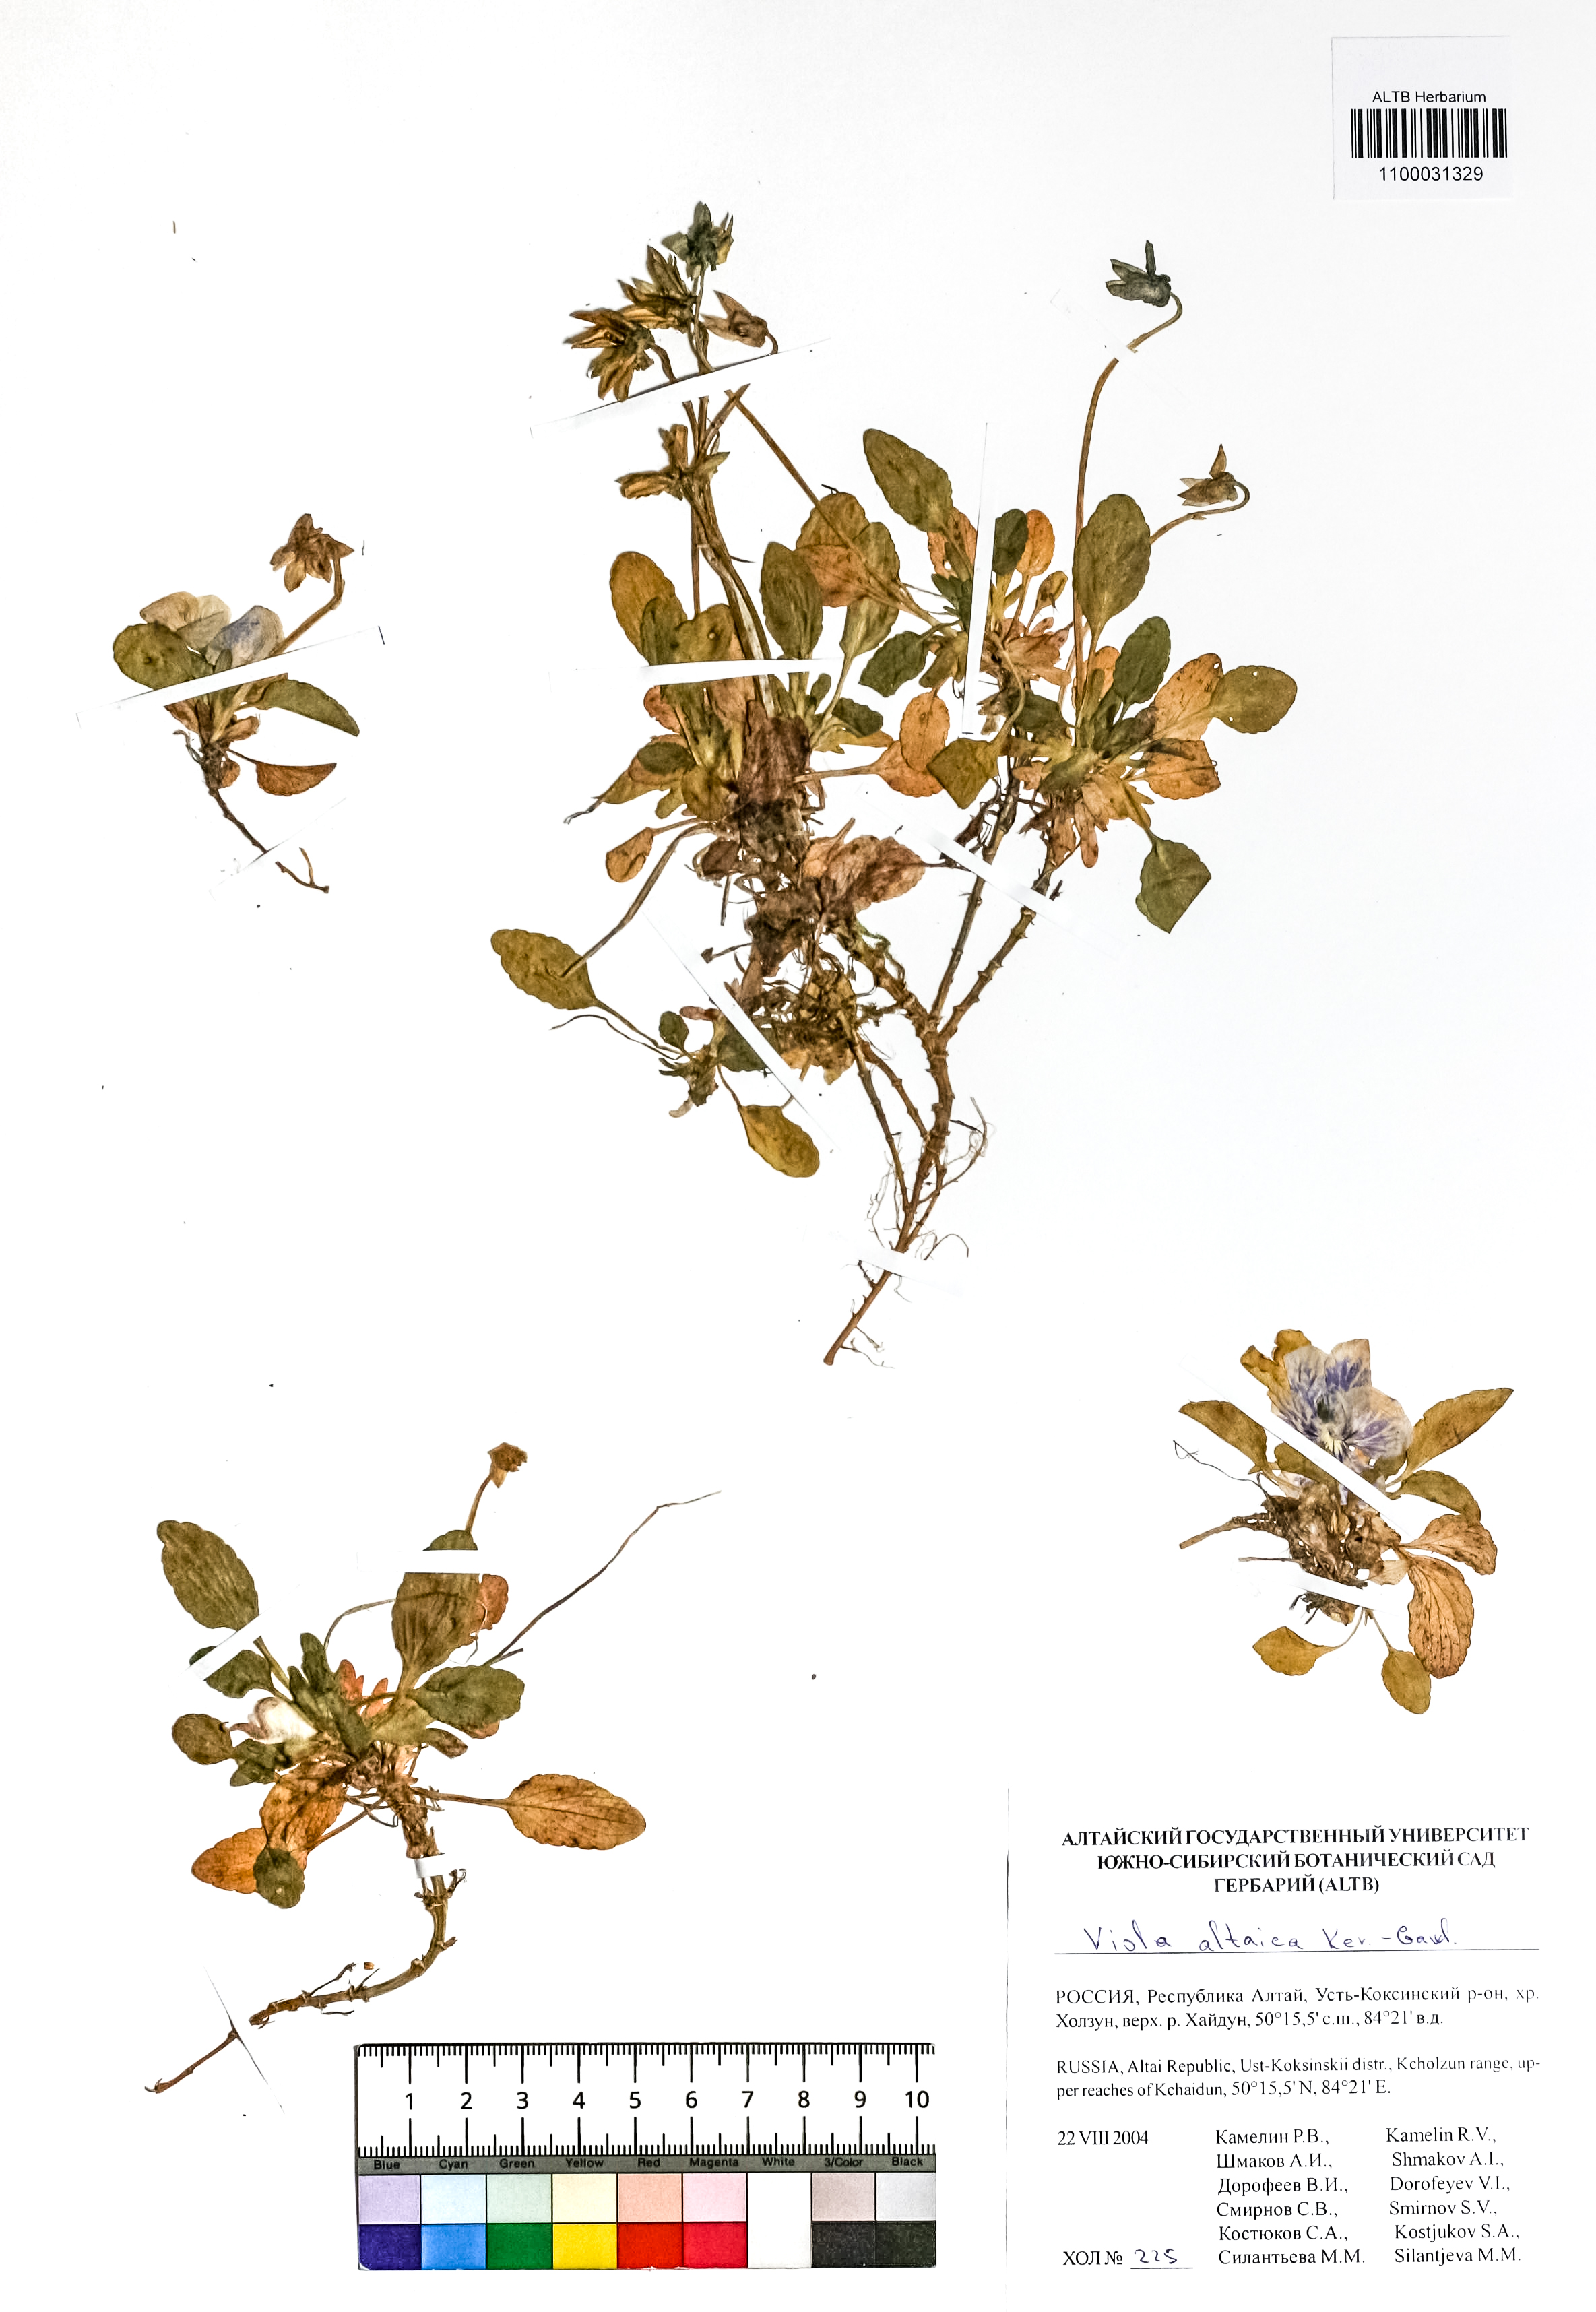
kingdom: Plantae
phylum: Tracheophyta
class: Magnoliopsida
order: Malpighiales
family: Violaceae
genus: Viola
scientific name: Viola altaica
